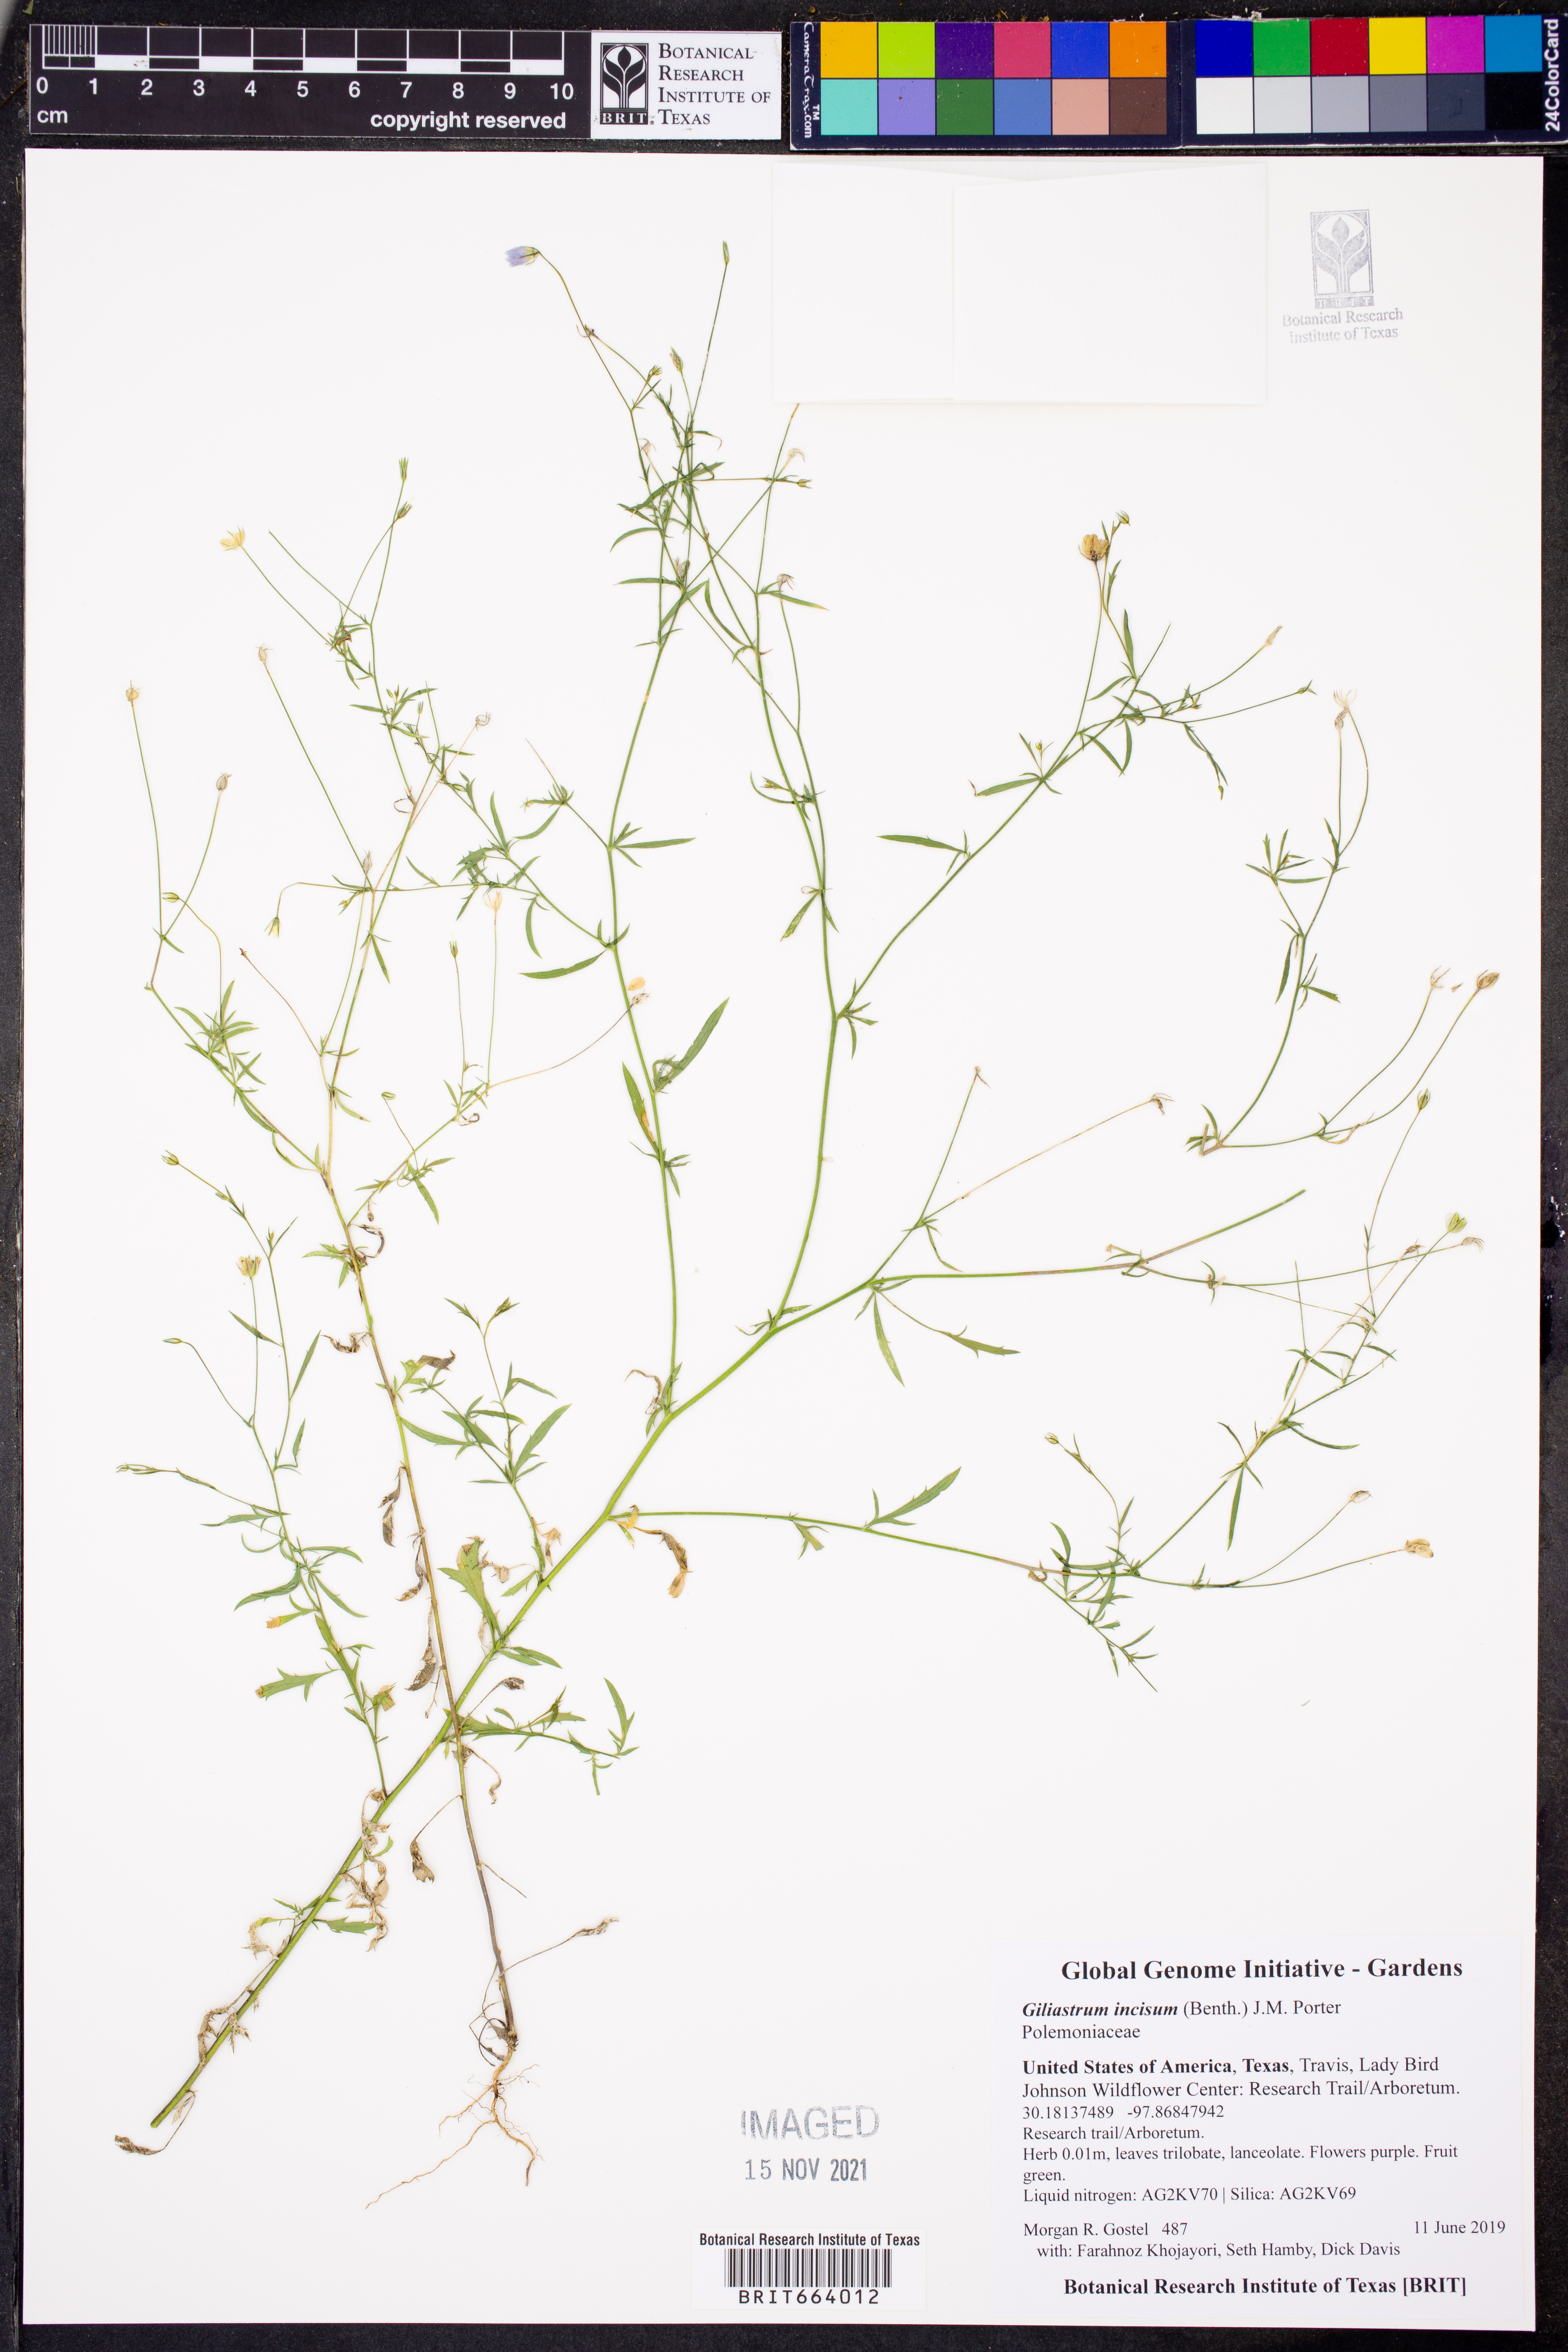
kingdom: Plantae
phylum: Tracheophyta
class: Magnoliopsida
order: Ericales
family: Polemoniaceae
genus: Giliastrum
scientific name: Giliastrum incisum
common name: Splitleaf gilia
